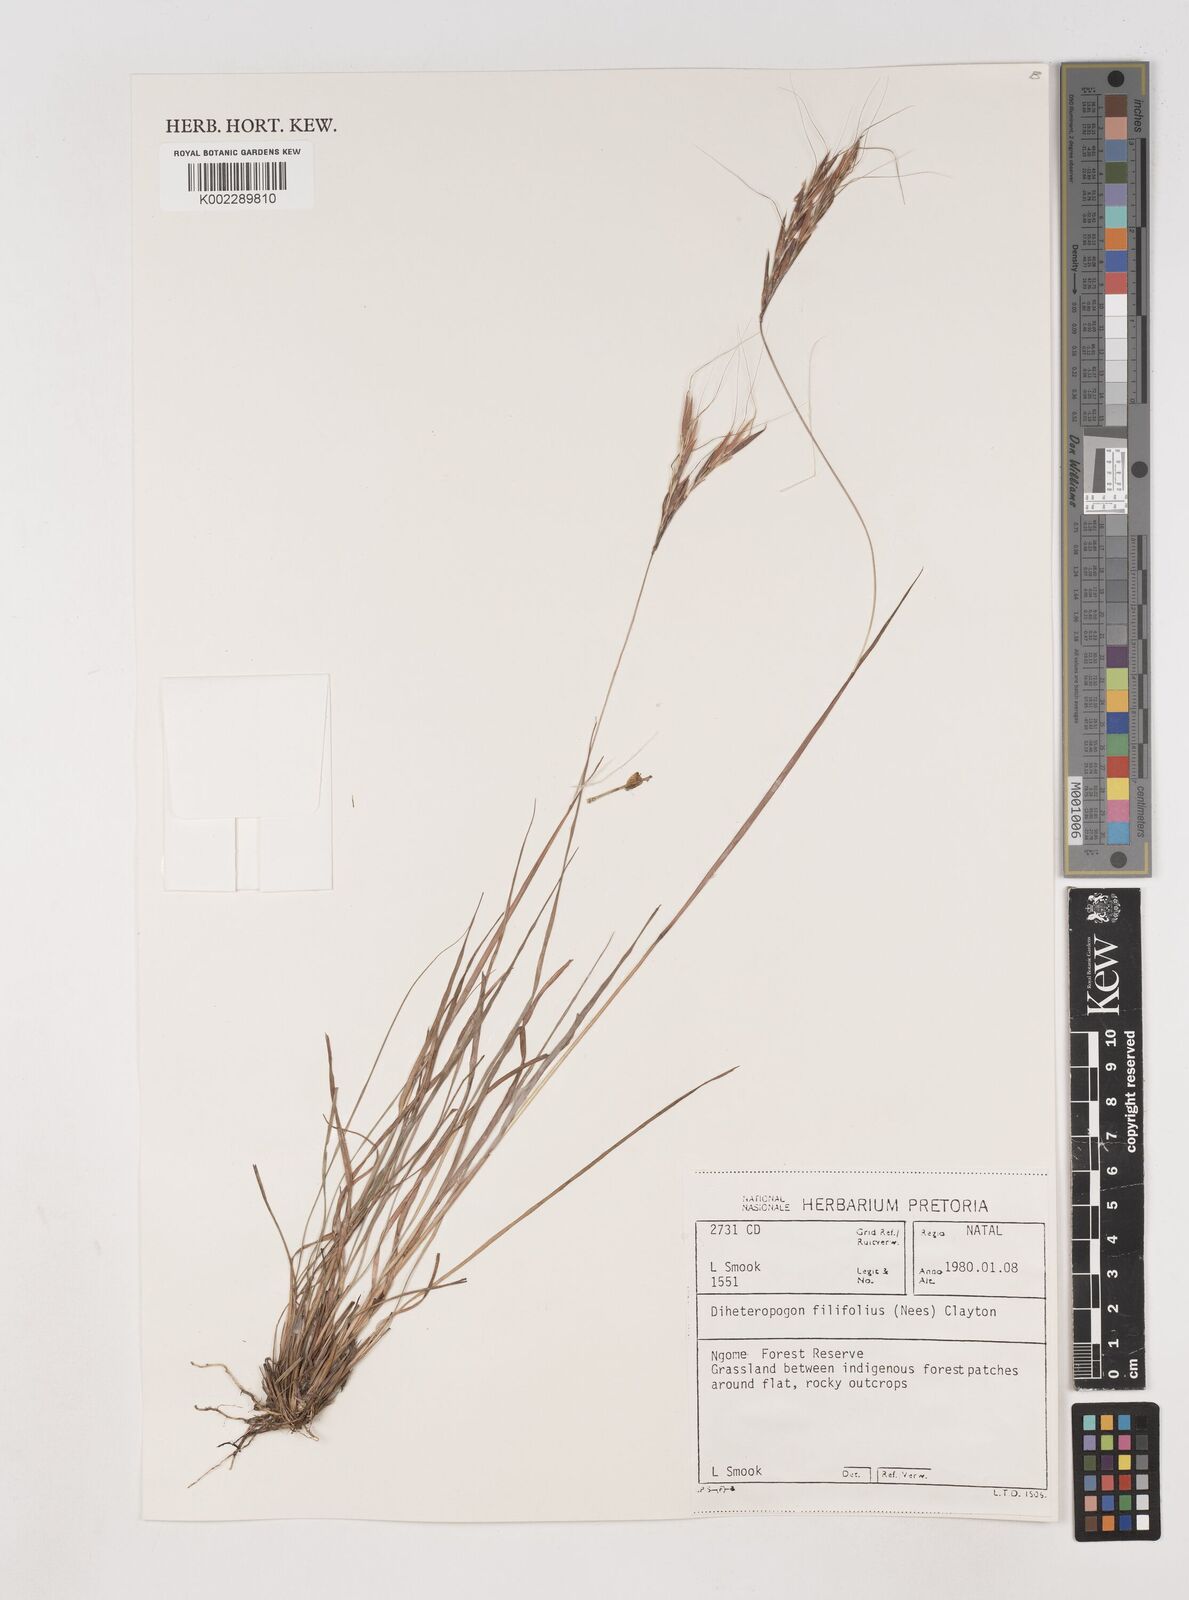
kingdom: Plantae
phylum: Tracheophyta
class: Liliopsida
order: Poales
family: Poaceae
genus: Diheteropogon
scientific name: Diheteropogon filifolius
